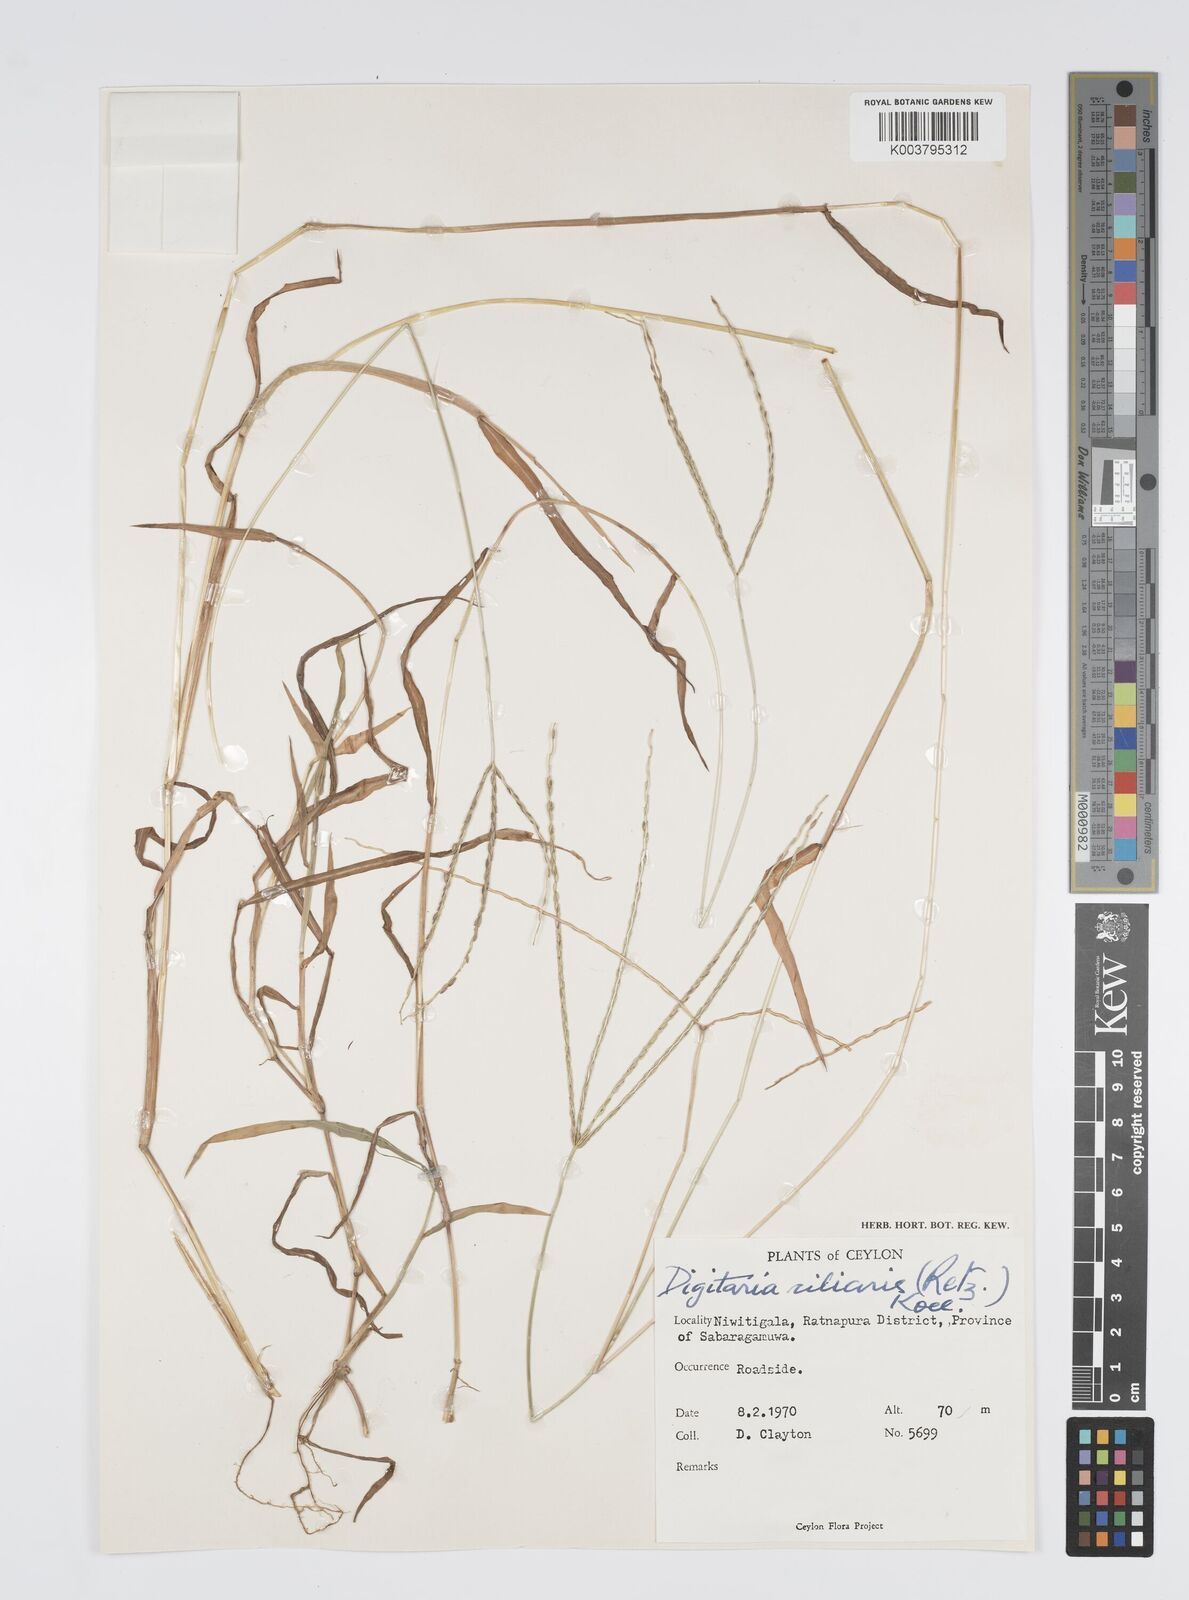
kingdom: Plantae
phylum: Tracheophyta
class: Liliopsida
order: Poales
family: Poaceae
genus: Digitaria
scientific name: Digitaria ciliaris
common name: Tropical finger-grass
